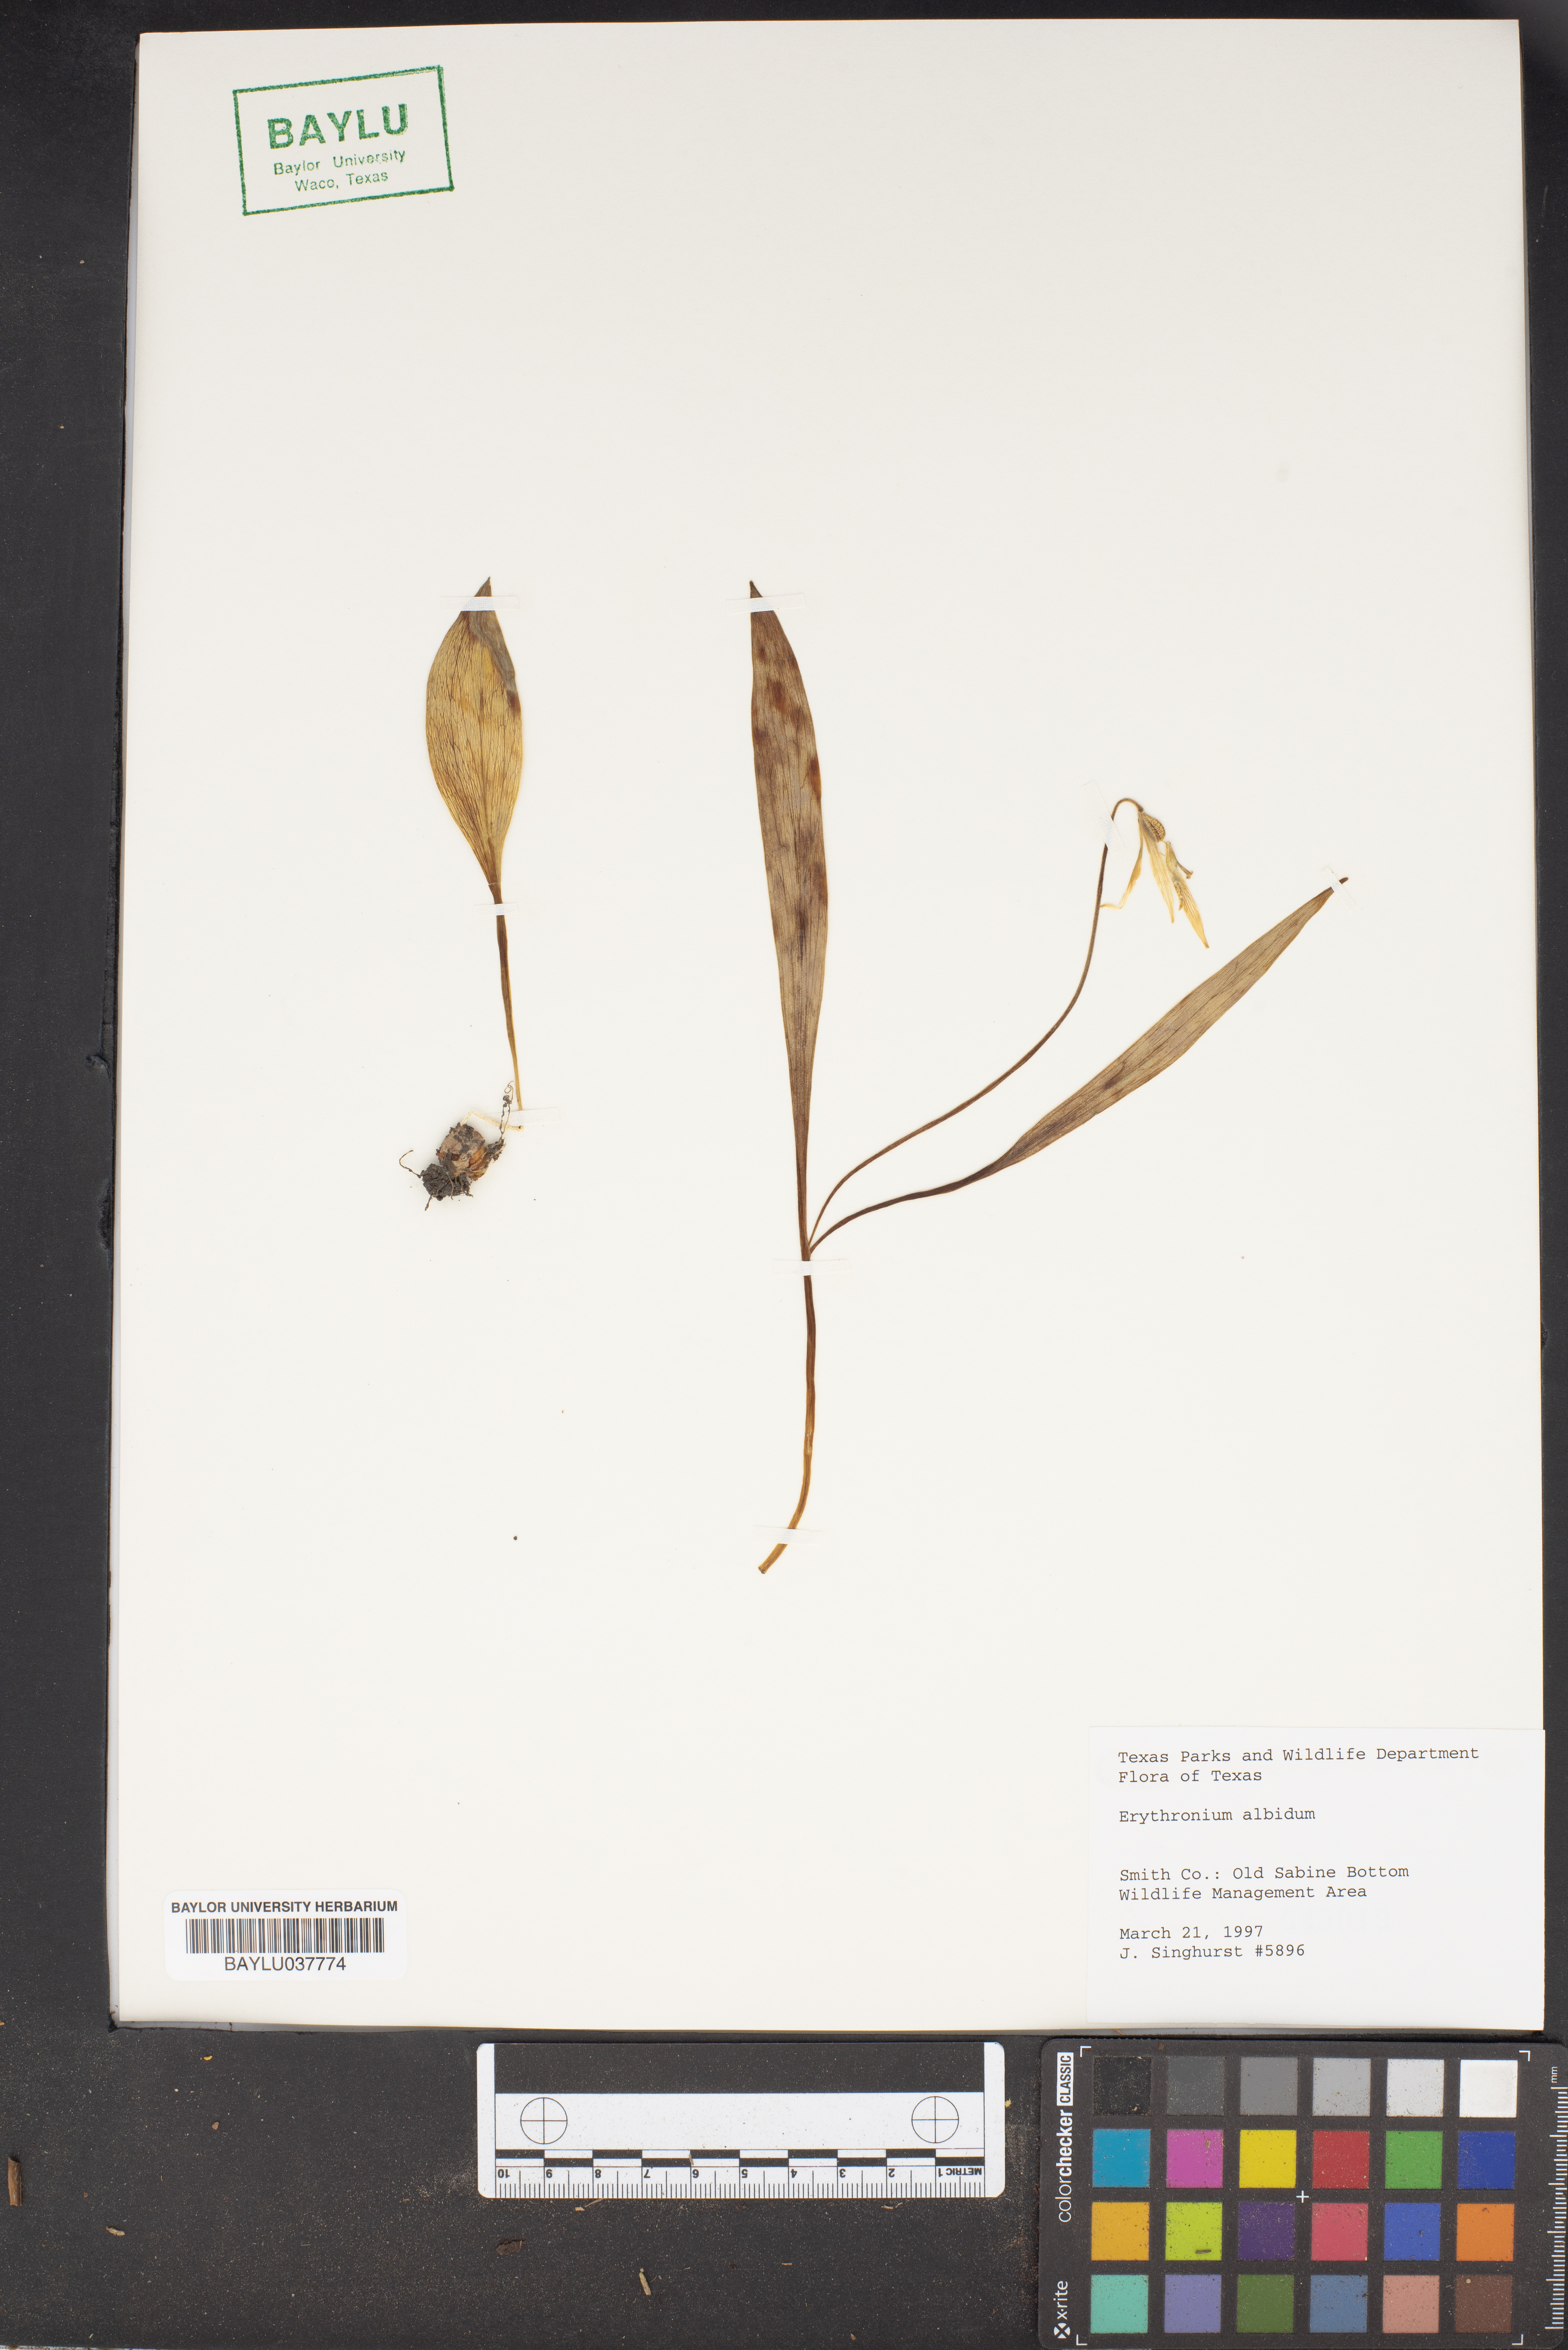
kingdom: Plantae
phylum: Tracheophyta
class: Liliopsida
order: Liliales
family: Liliaceae
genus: Erythronium
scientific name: Erythronium albidum
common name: White trout-lily
